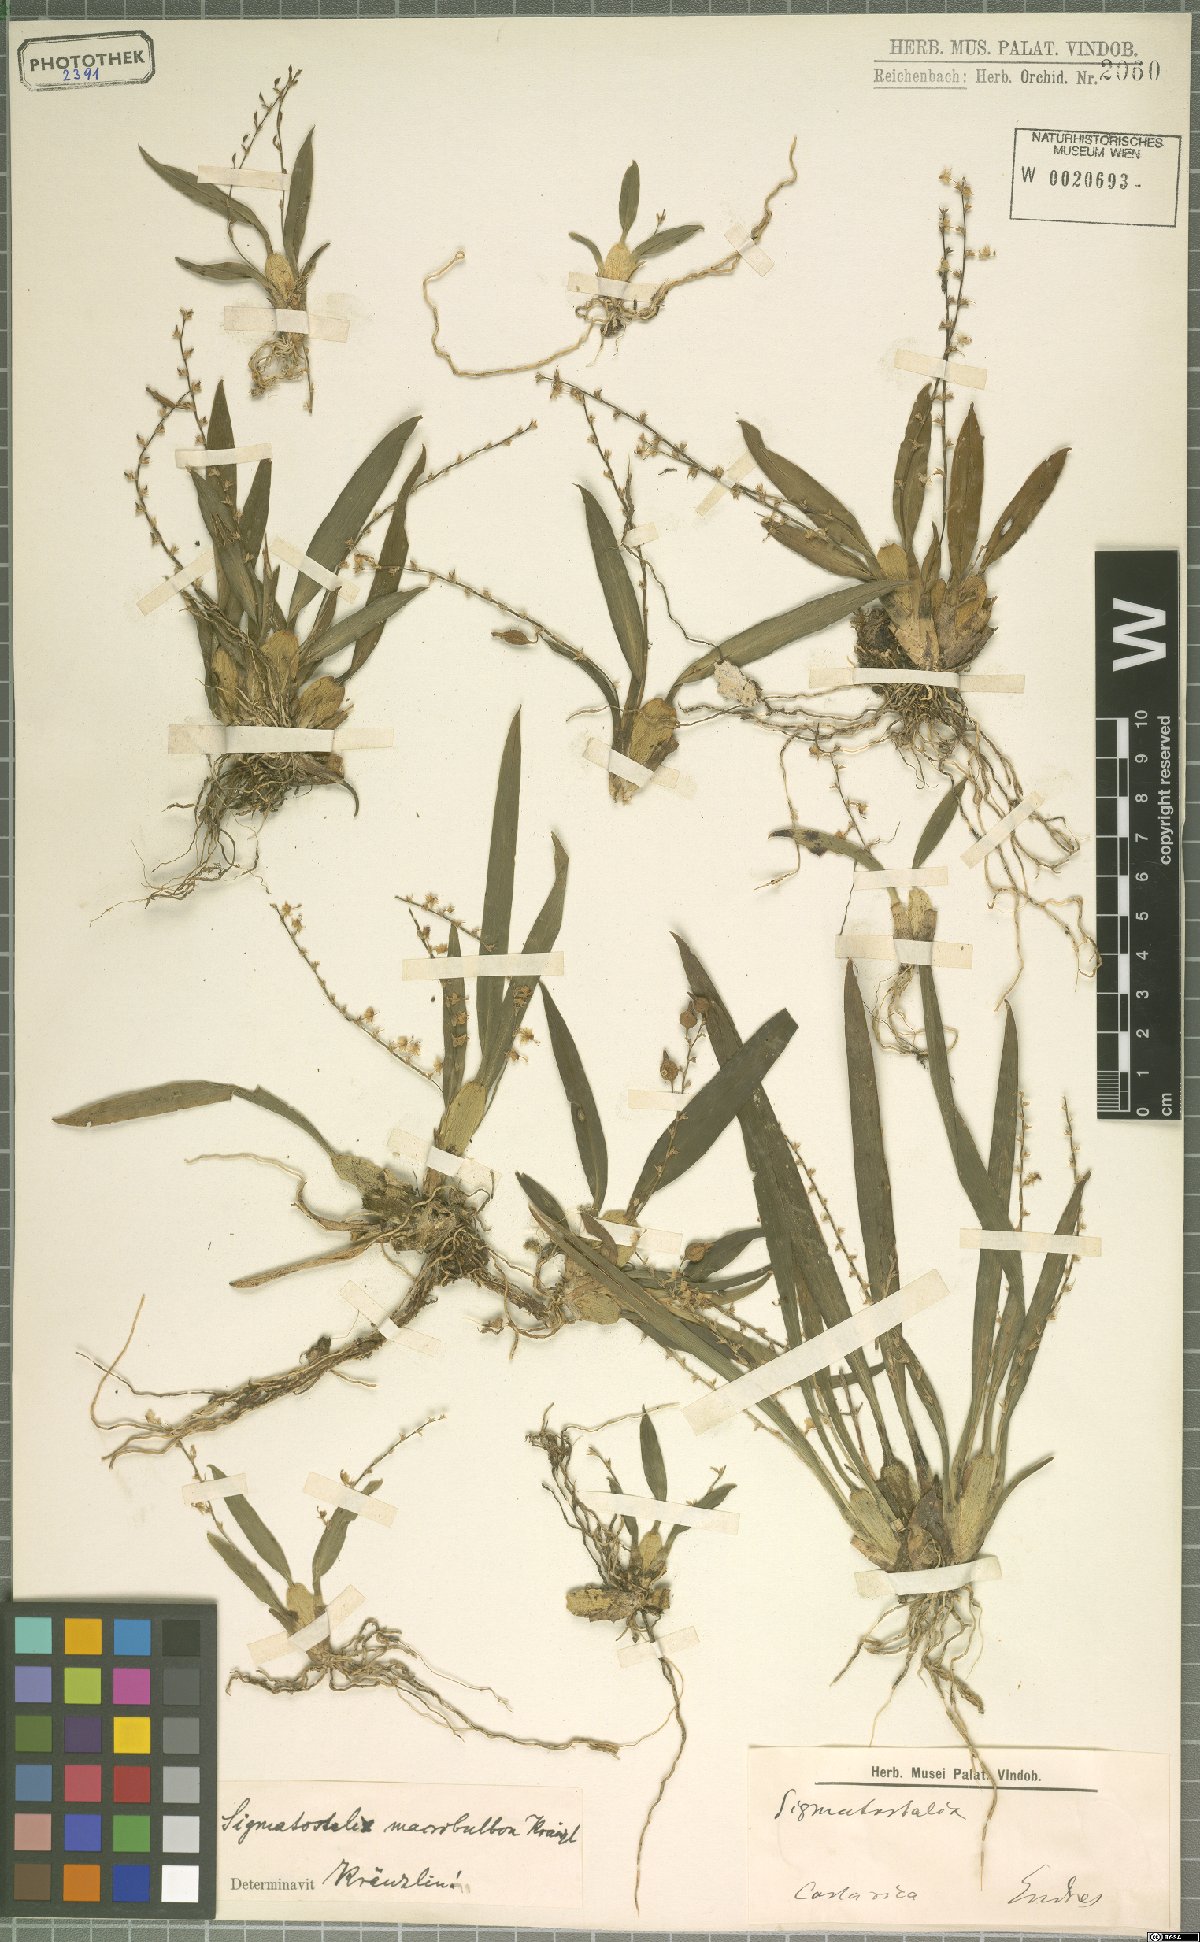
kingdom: Plantae
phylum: Tracheophyta
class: Liliopsida
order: Asparagales
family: Orchidaceae
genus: Oncidium
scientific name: Oncidium macrobulbon
